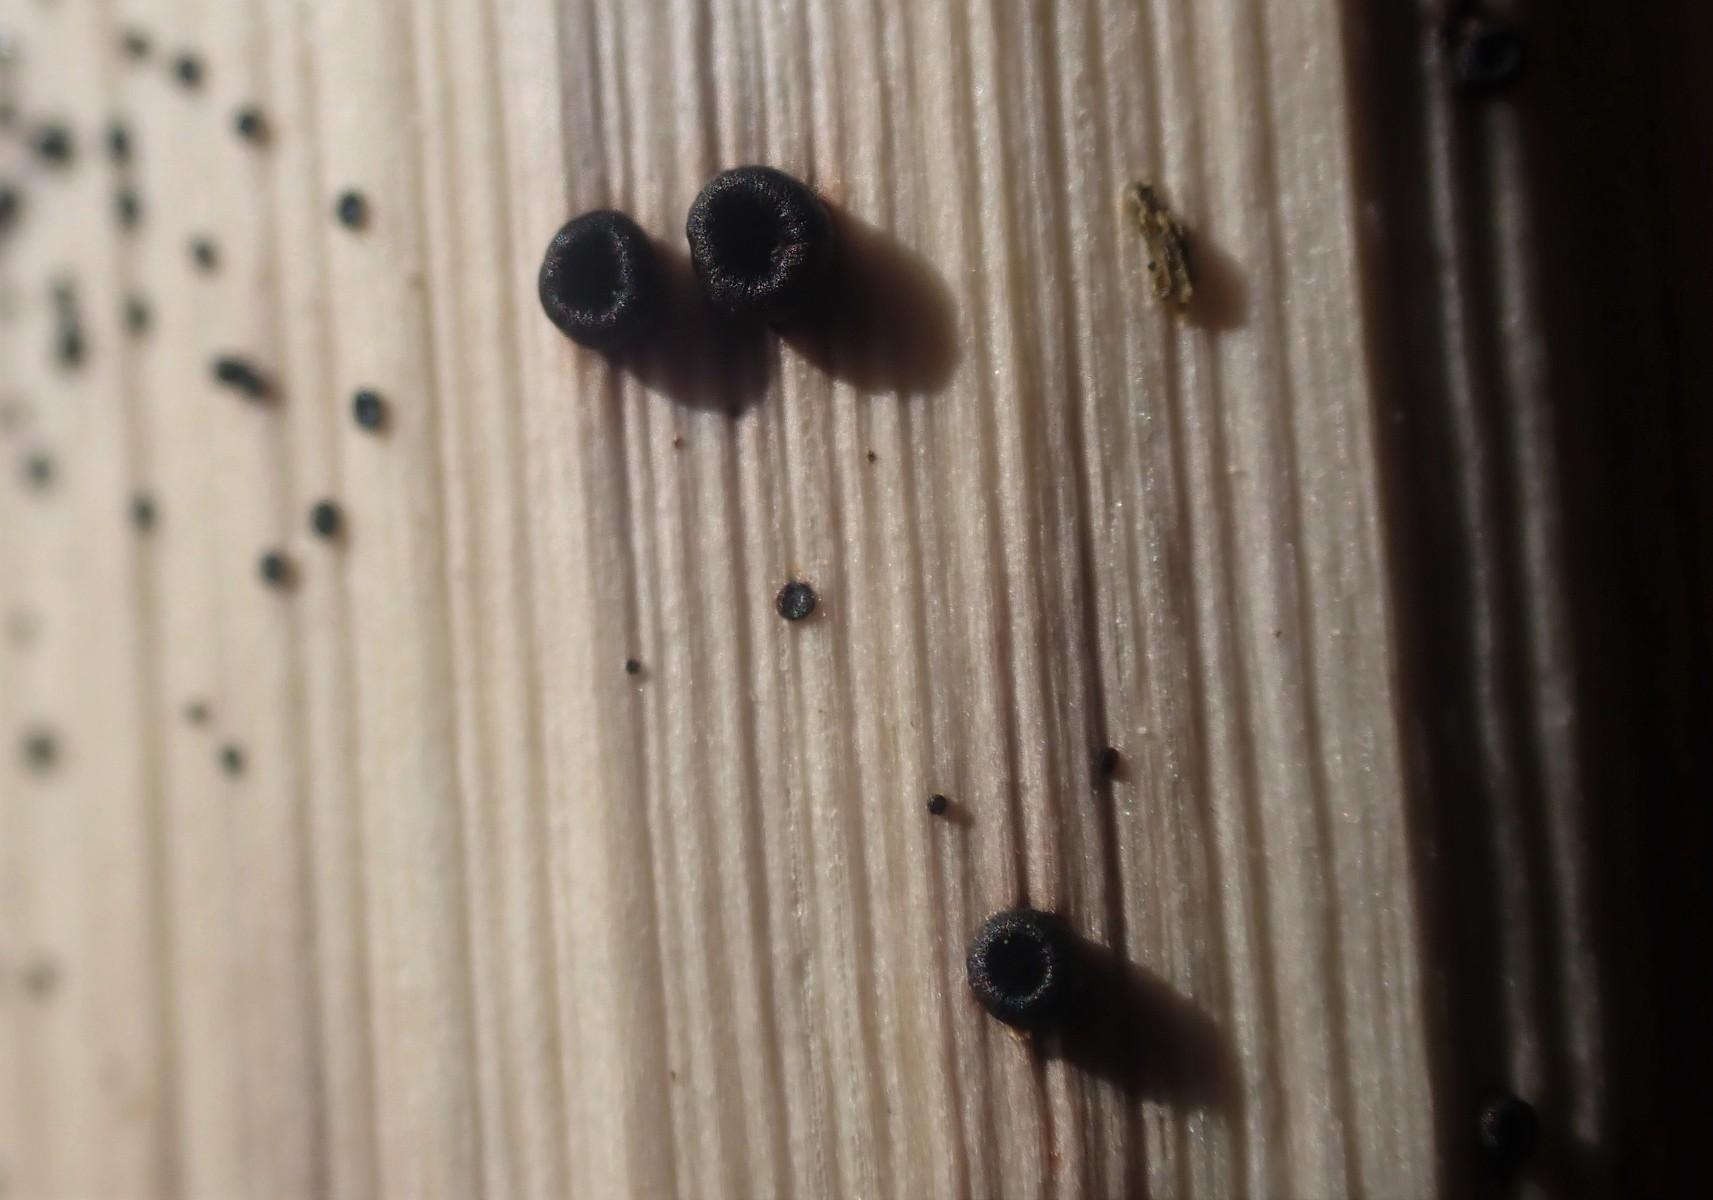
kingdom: Fungi
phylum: Ascomycota
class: Leotiomycetes
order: Helotiales
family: Heterosphaeriaceae
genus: Heterosphaeria
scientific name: Heterosphaeria
